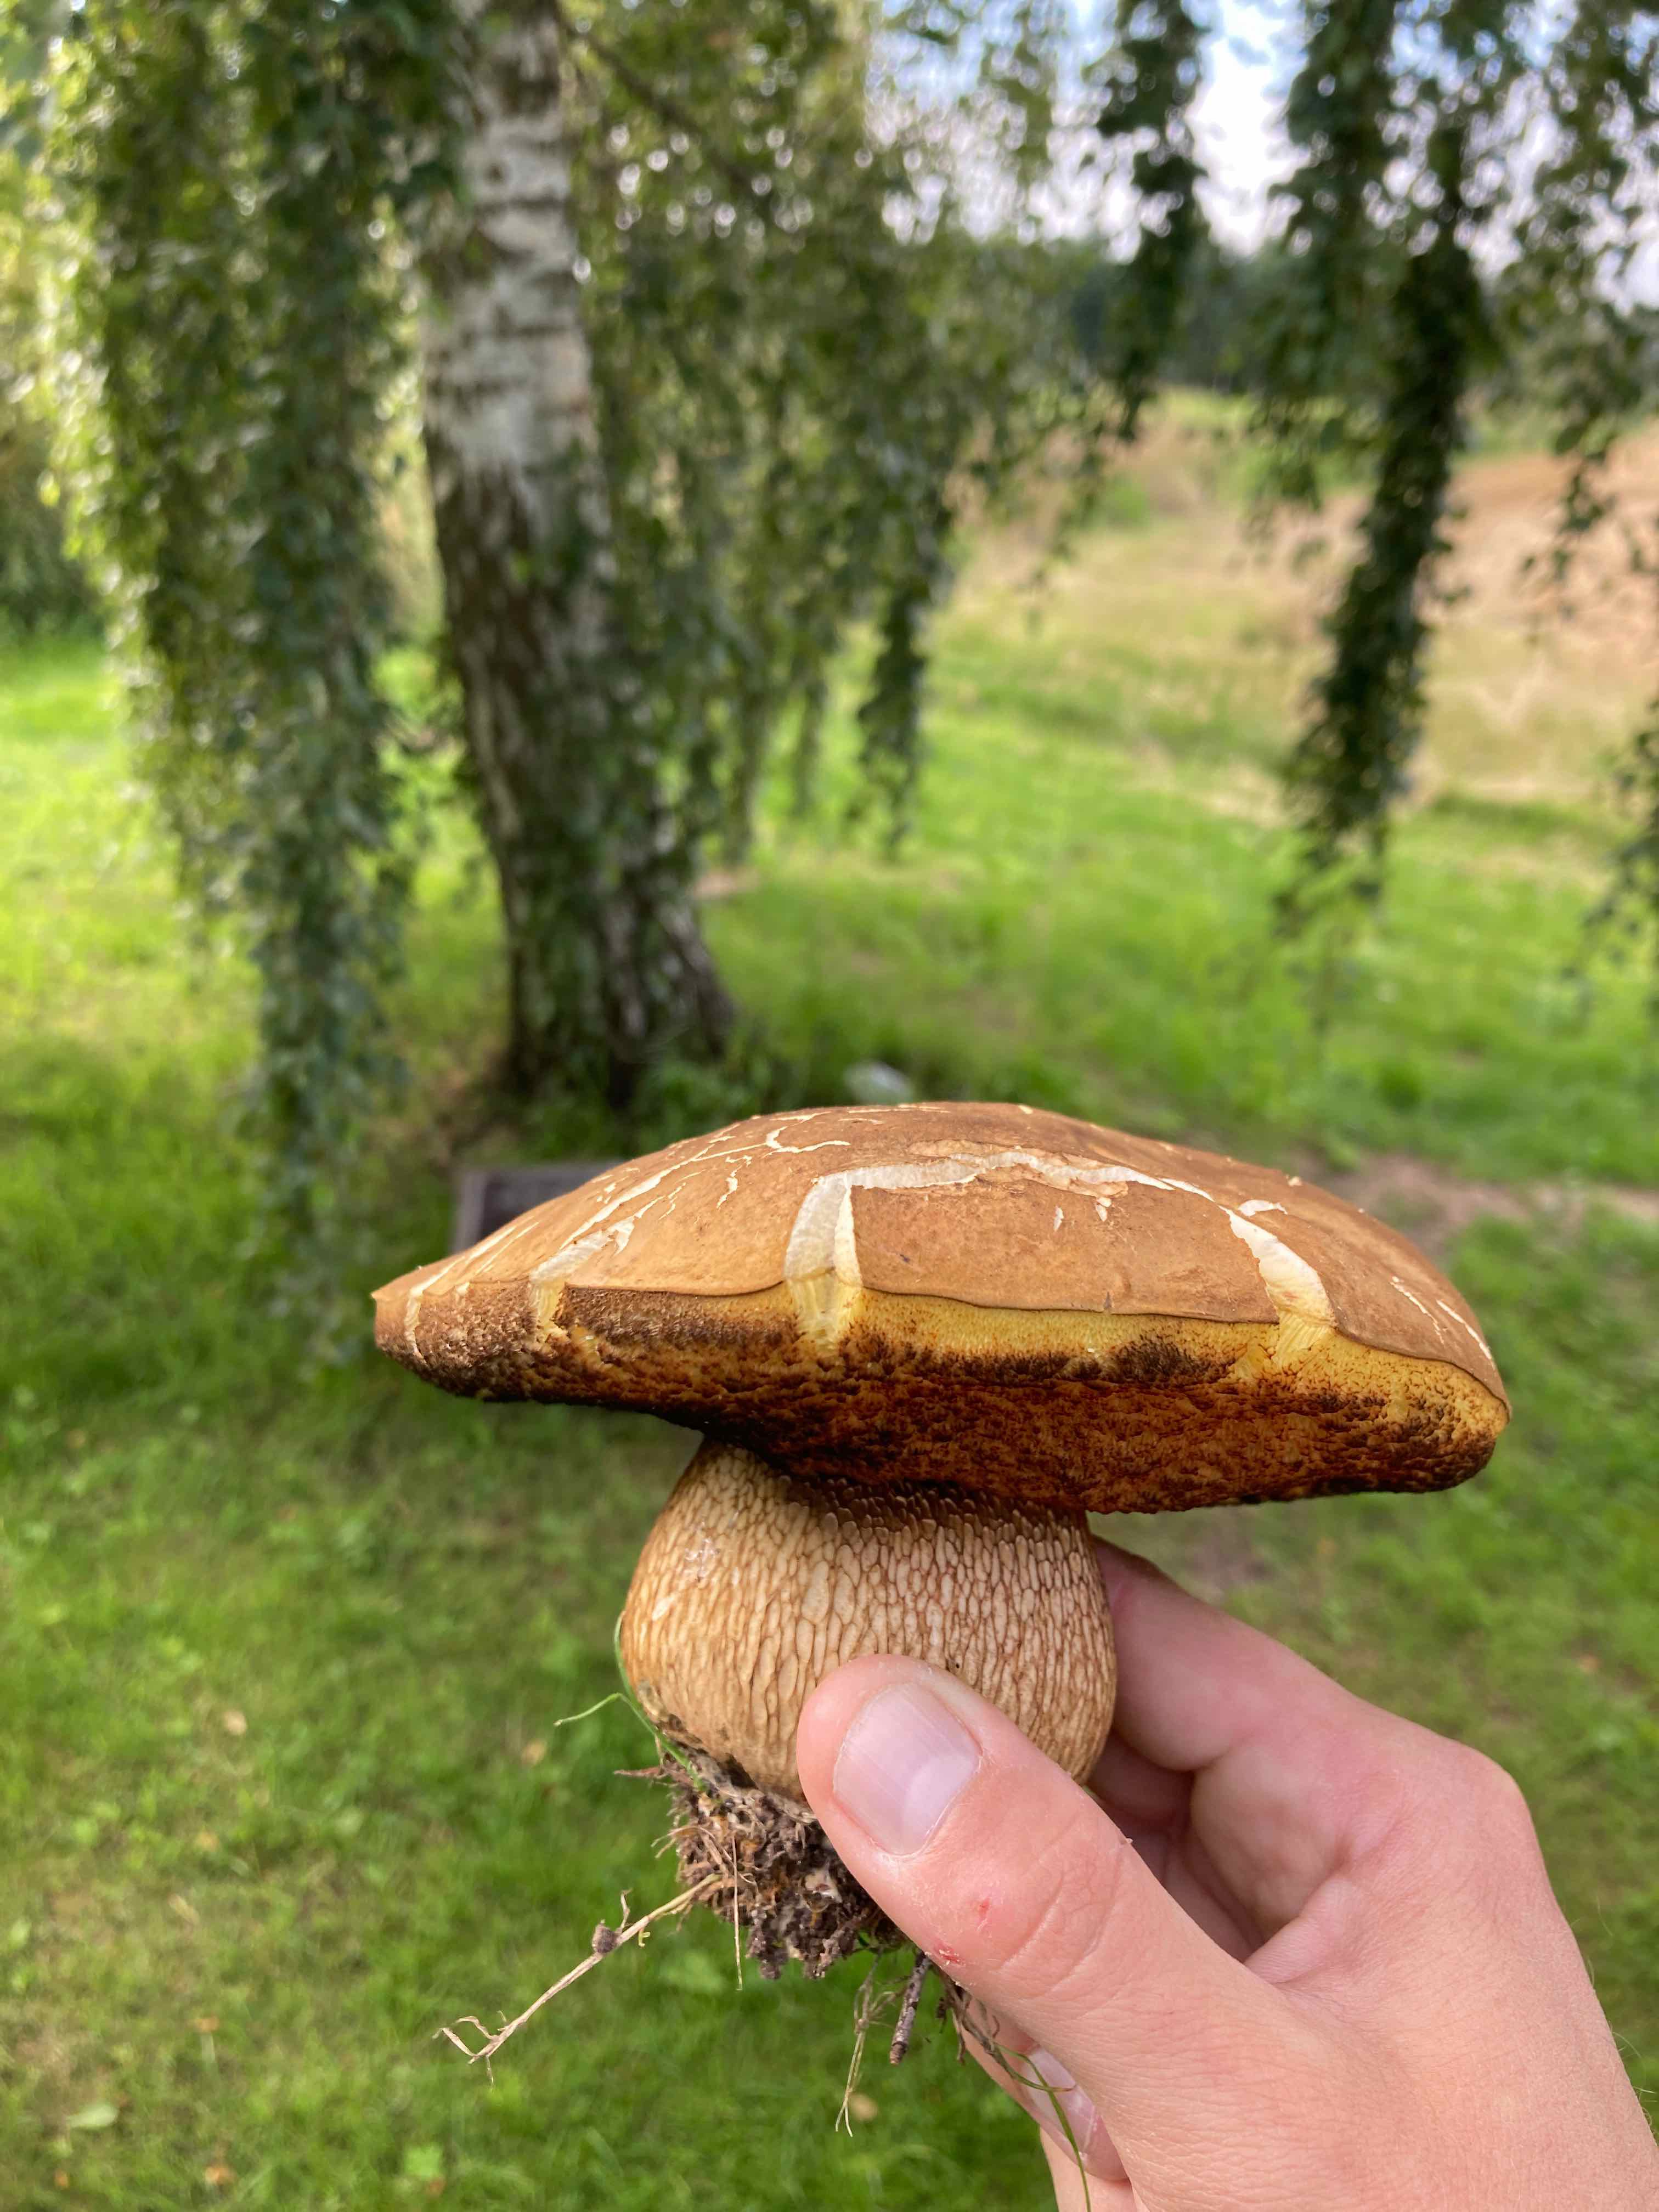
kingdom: Fungi
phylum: Basidiomycota
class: Agaricomycetes
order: Boletales
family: Boletaceae
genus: Suillellus
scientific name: Suillellus luridus
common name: netstokket indigorørhat
